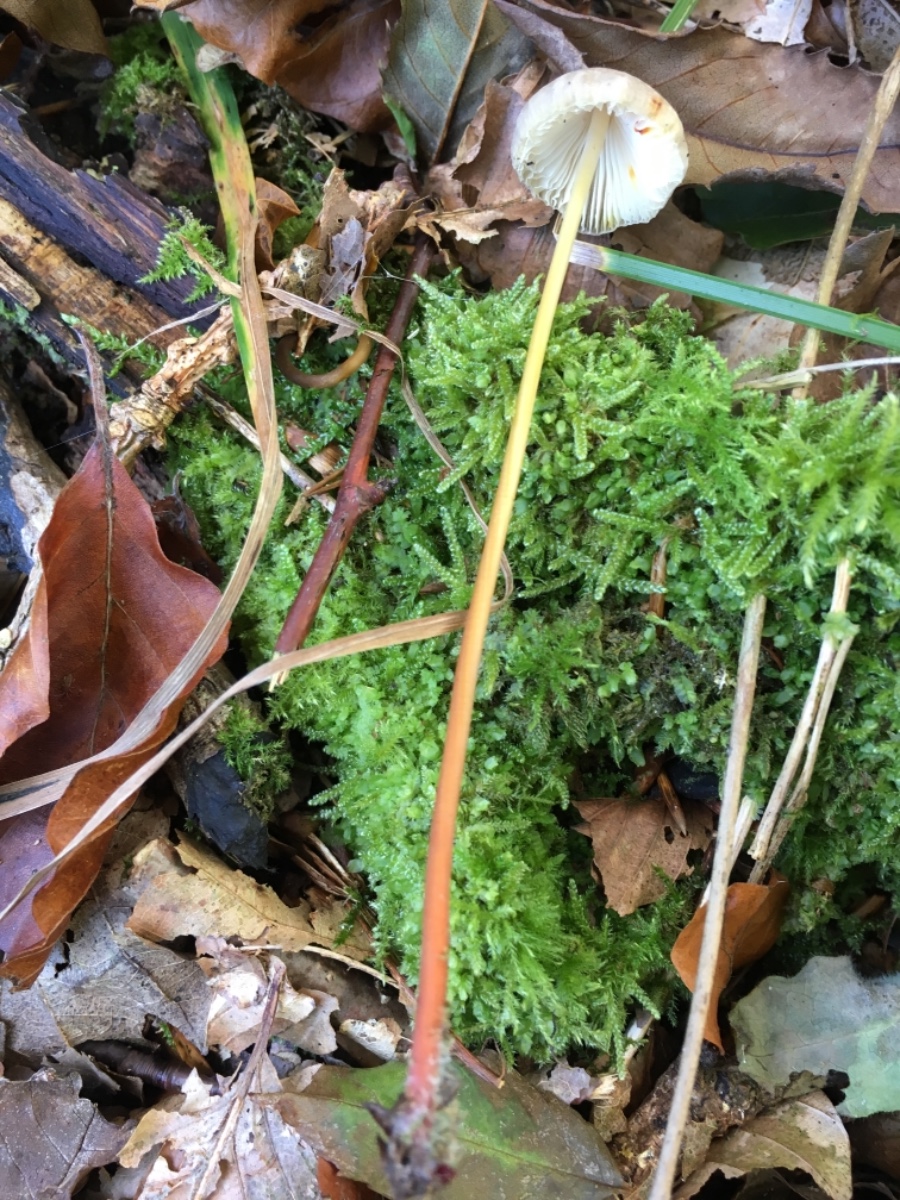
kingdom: Fungi
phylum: Basidiomycota
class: Agaricomycetes
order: Agaricales
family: Mycenaceae
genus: Mycena
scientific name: Mycena crocata
